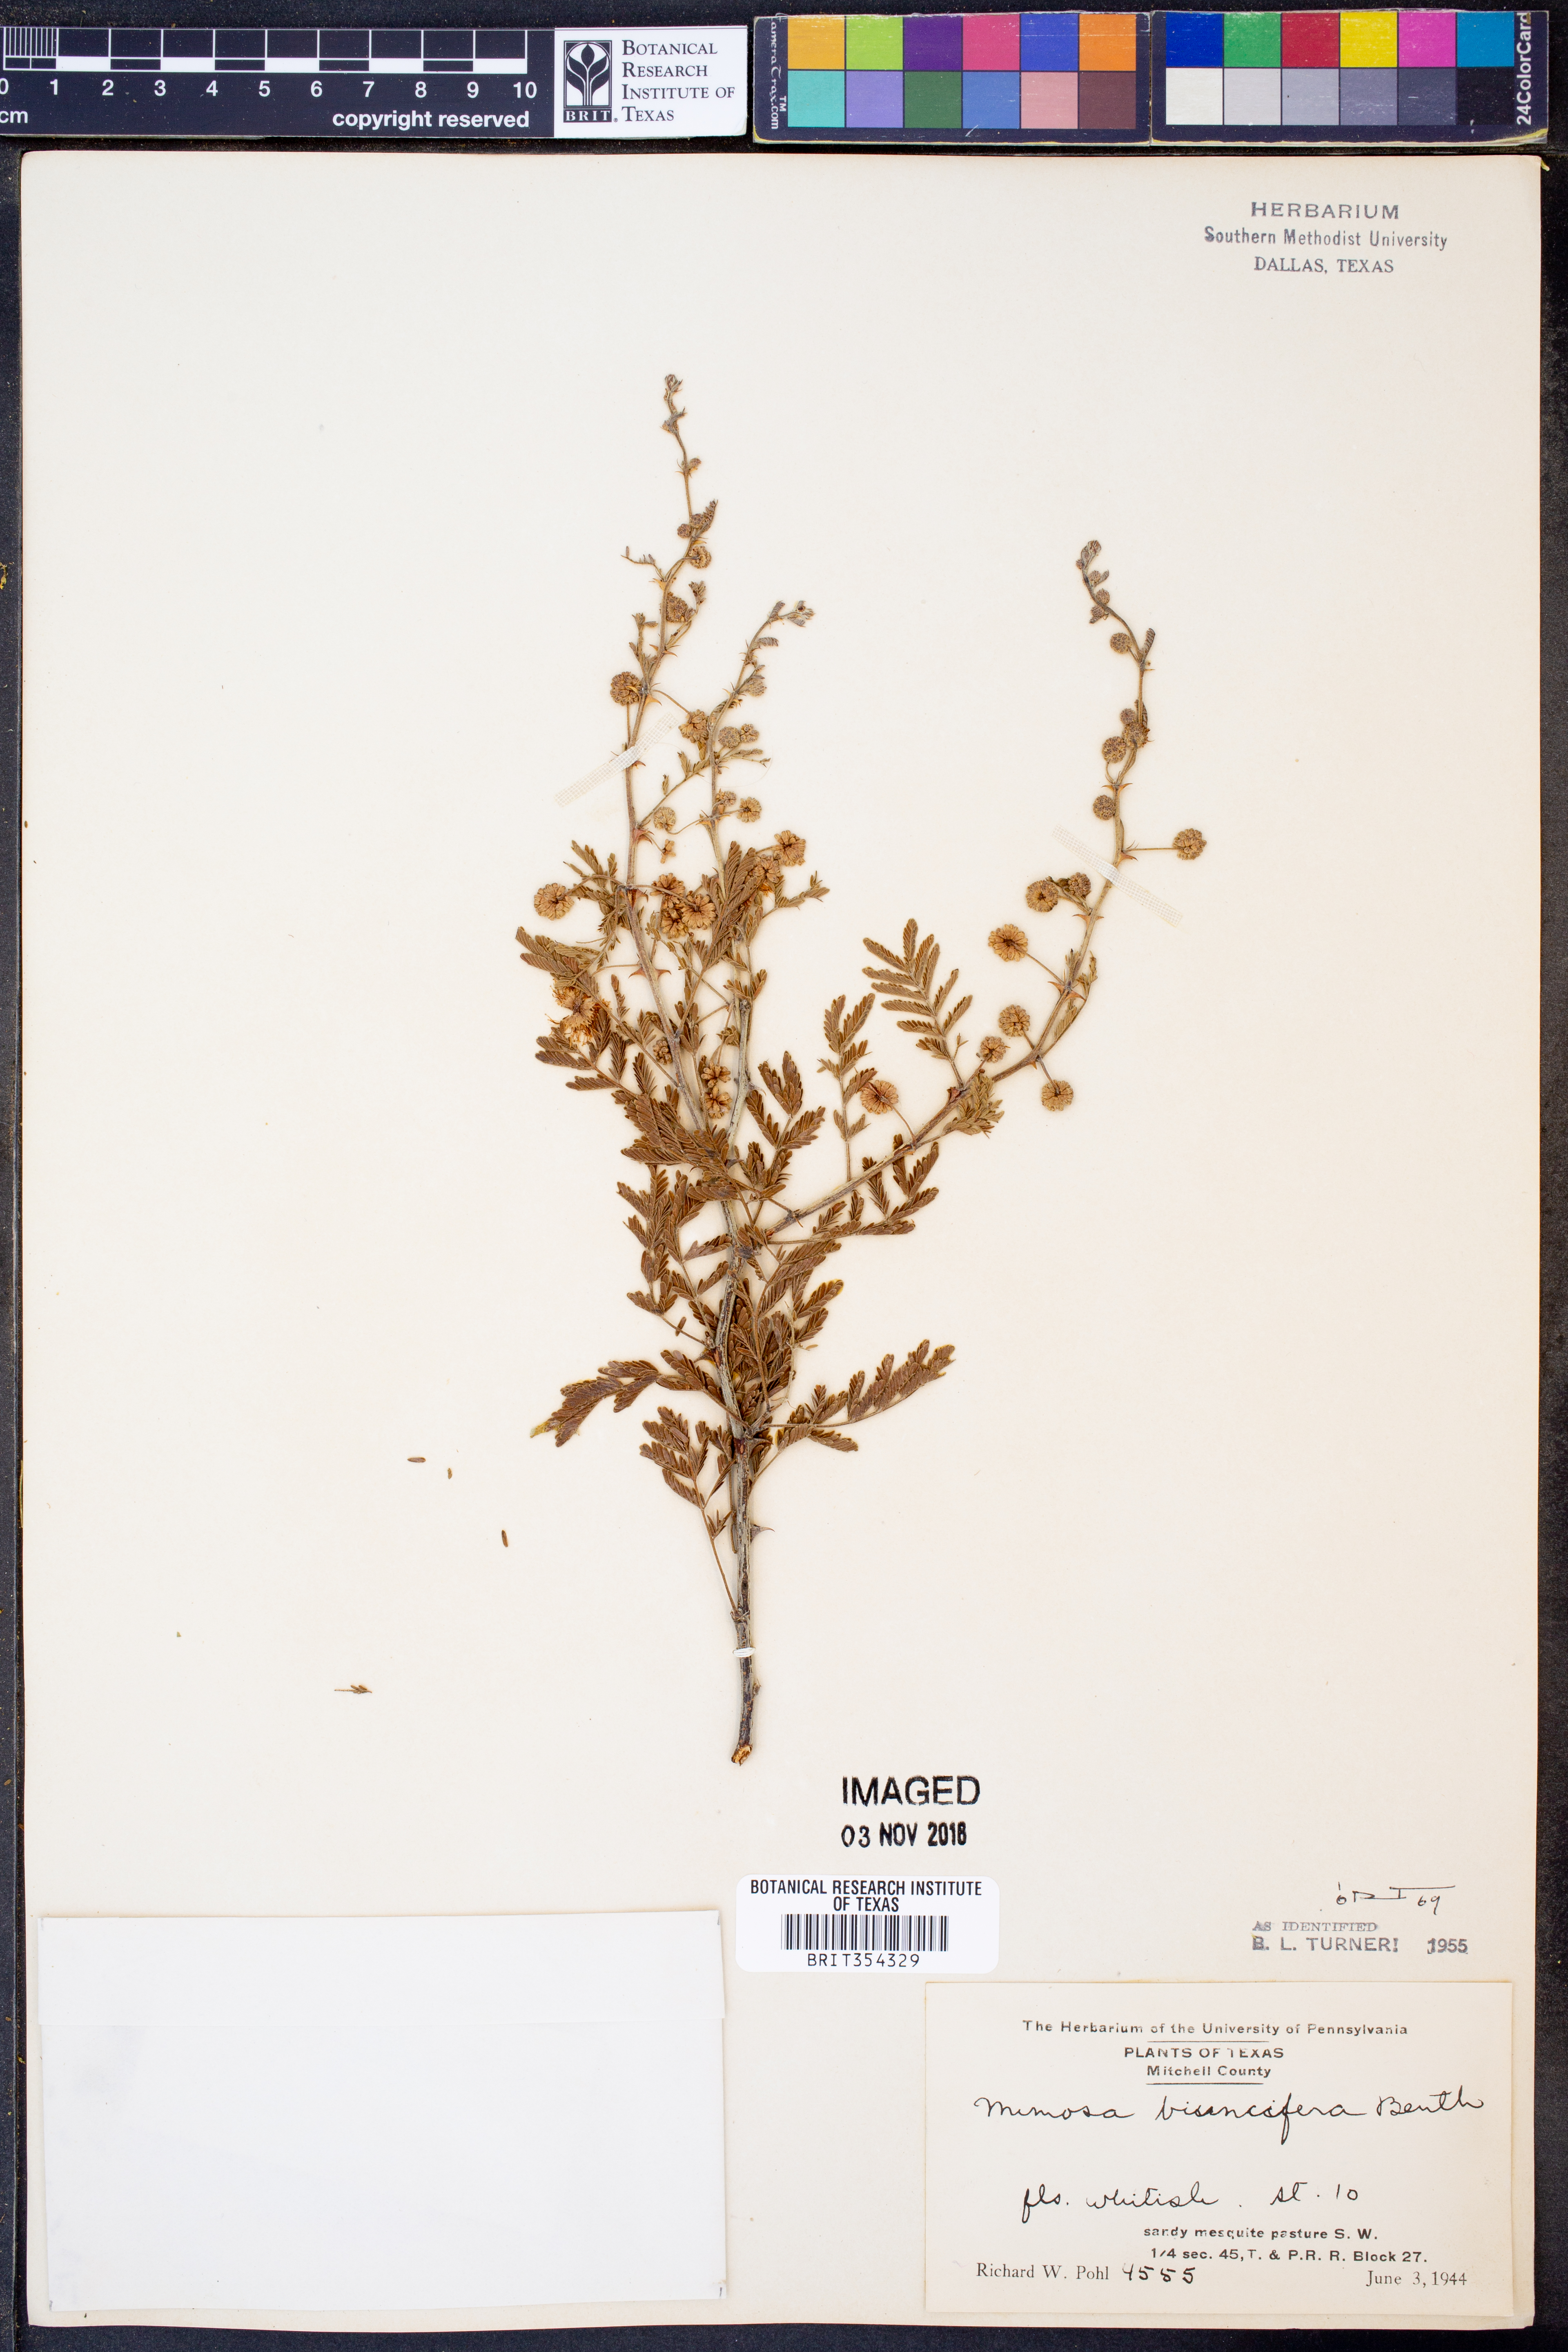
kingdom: Plantae
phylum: Tracheophyta
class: Magnoliopsida
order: Fabales
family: Fabaceae
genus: Mimosa
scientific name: Mimosa biuncifera
